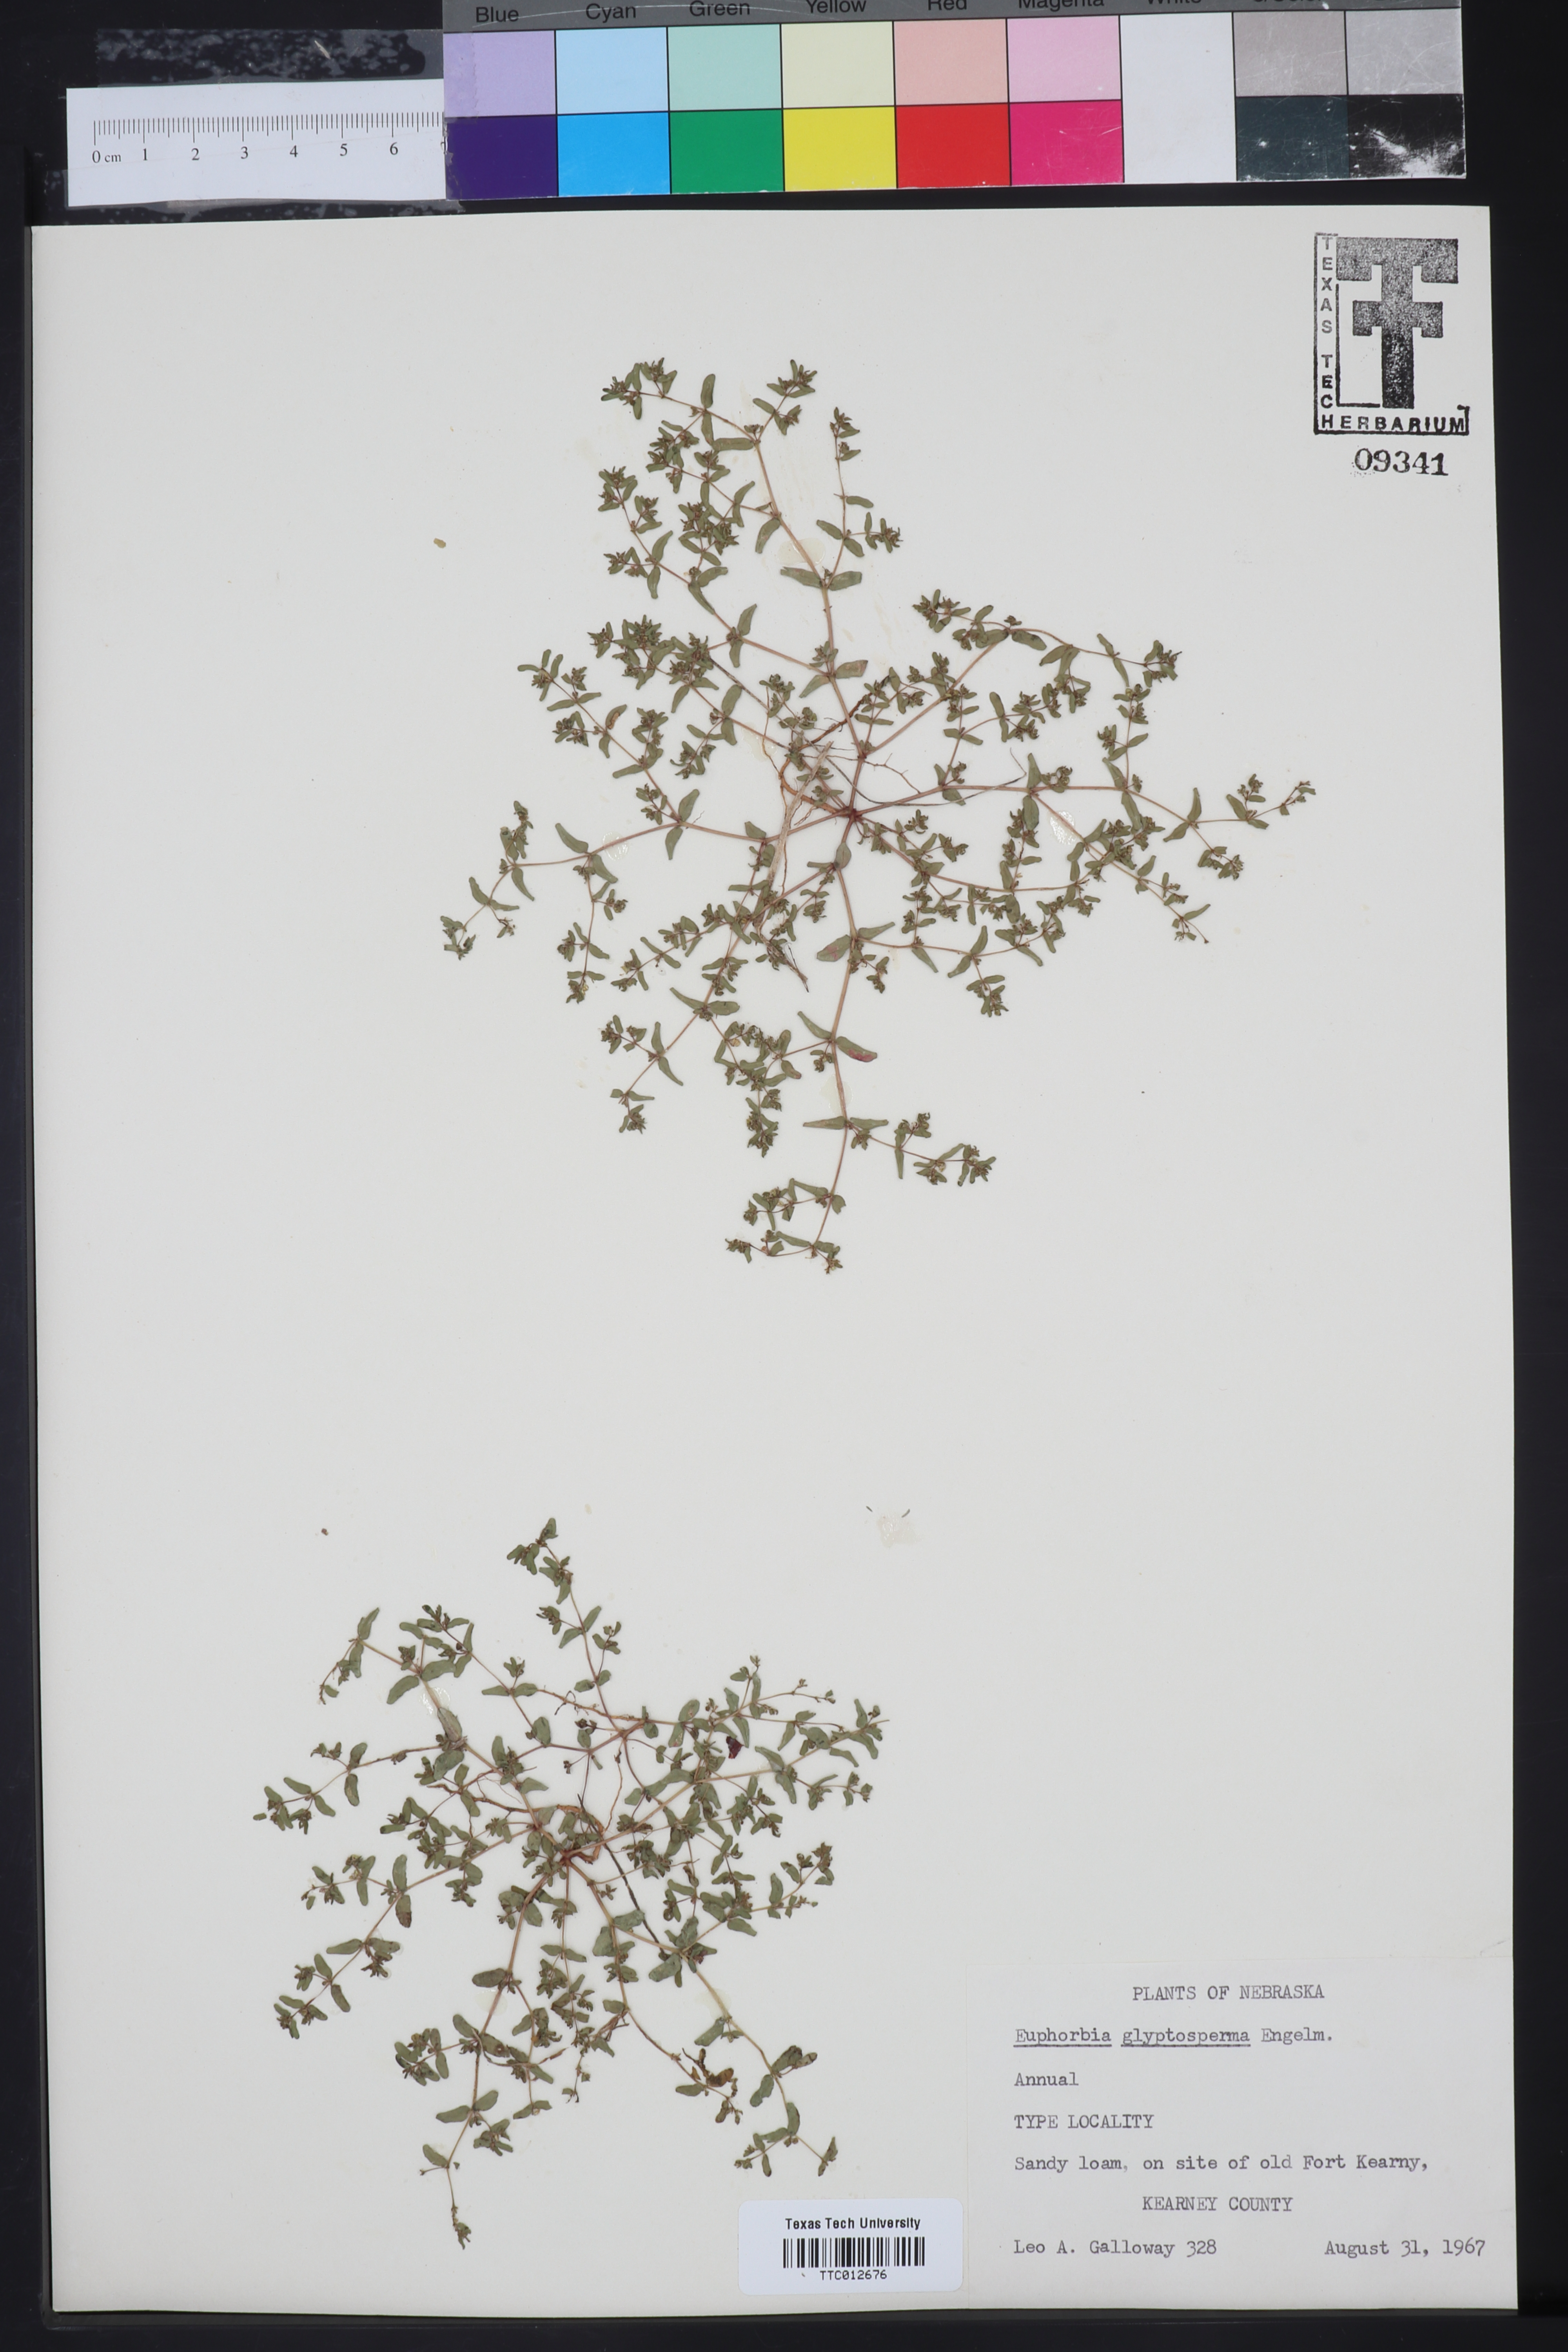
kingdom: Plantae
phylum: Tracheophyta
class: Magnoliopsida
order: Malpighiales
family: Euphorbiaceae
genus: Euphorbia
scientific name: Euphorbia glyptosperma
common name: Corrugate-seeded spurge
